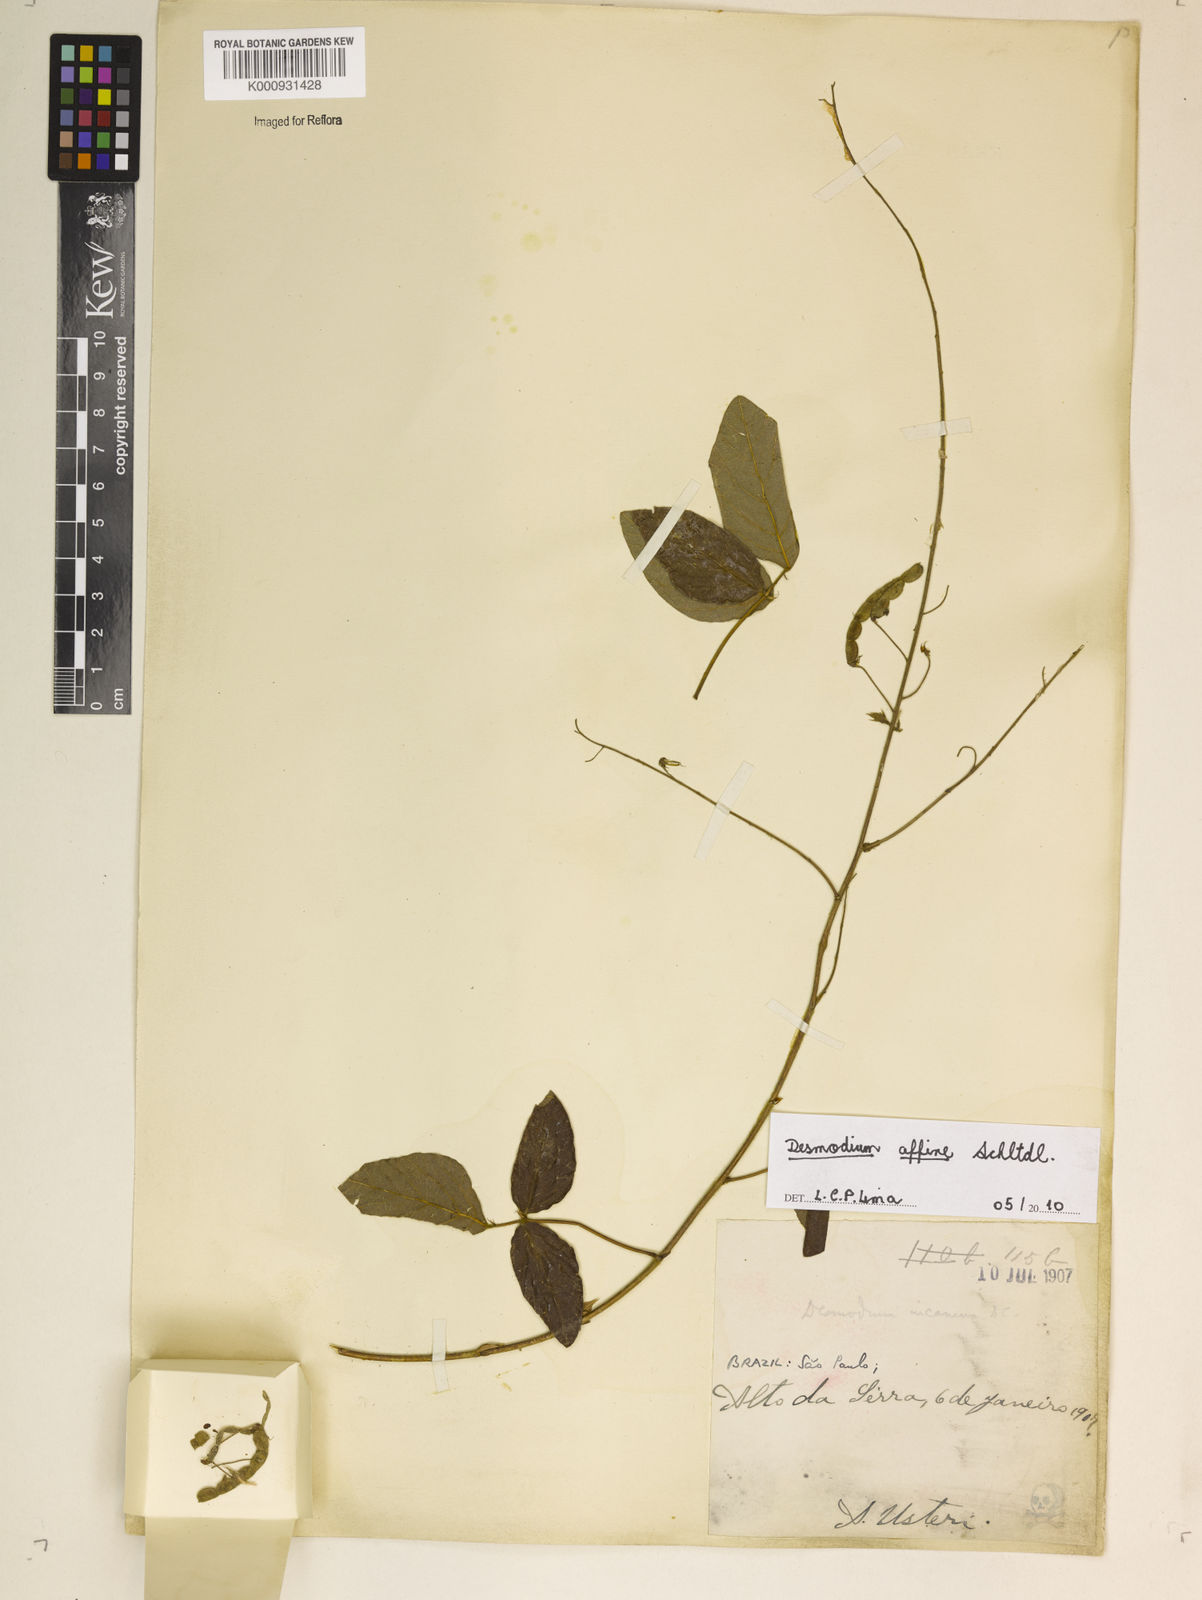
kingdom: Plantae
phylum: Tracheophyta
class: Magnoliopsida
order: Fabales
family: Fabaceae
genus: Desmodium
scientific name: Desmodium affine
